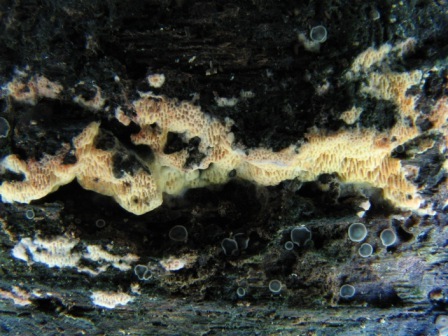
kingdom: Fungi
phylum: Basidiomycota
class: Agaricomycetes
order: Polyporales
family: Irpicaceae
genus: Ceriporia
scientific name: Ceriporia aurantiocarnescens
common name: orangerosa voksporesvamp
